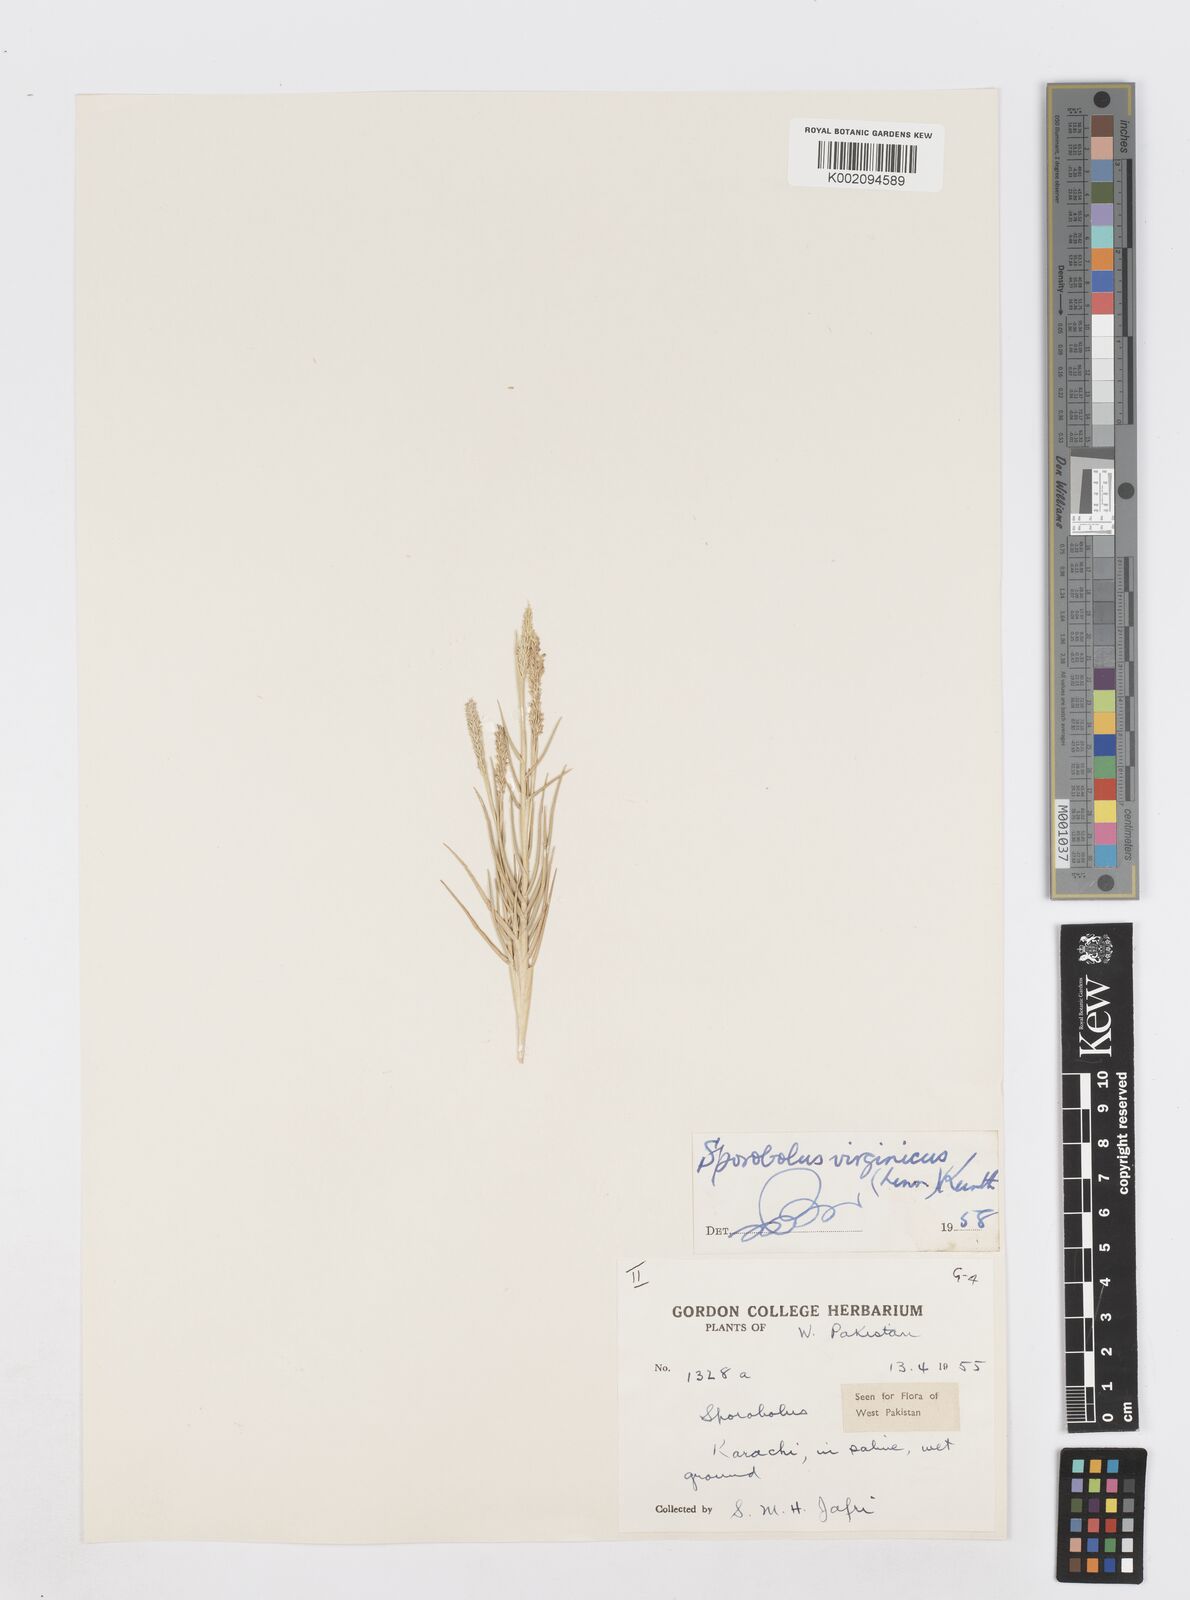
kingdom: Plantae
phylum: Tracheophyta
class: Liliopsida
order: Poales
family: Poaceae
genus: Sporobolus
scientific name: Sporobolus virginicus
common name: Beach dropseed
